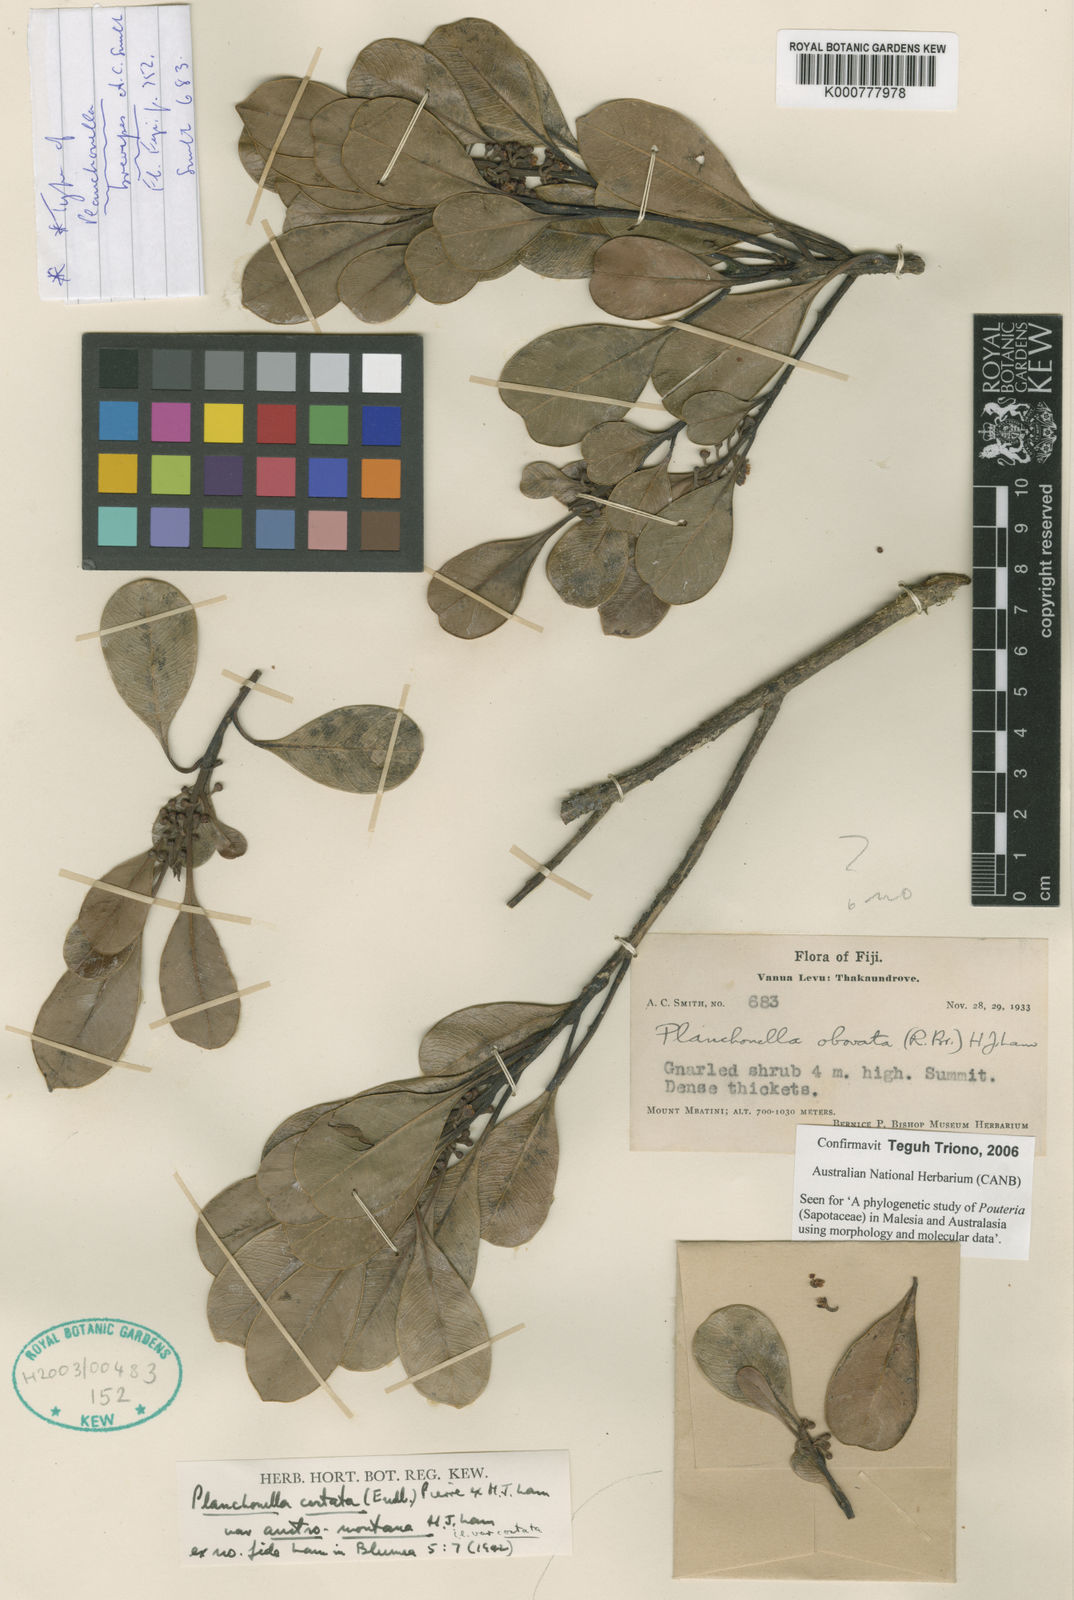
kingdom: Plantae
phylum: Tracheophyta
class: Magnoliopsida
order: Ericales
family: Sapotaceae
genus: Synsepalum
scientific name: Synsepalum brevipes
